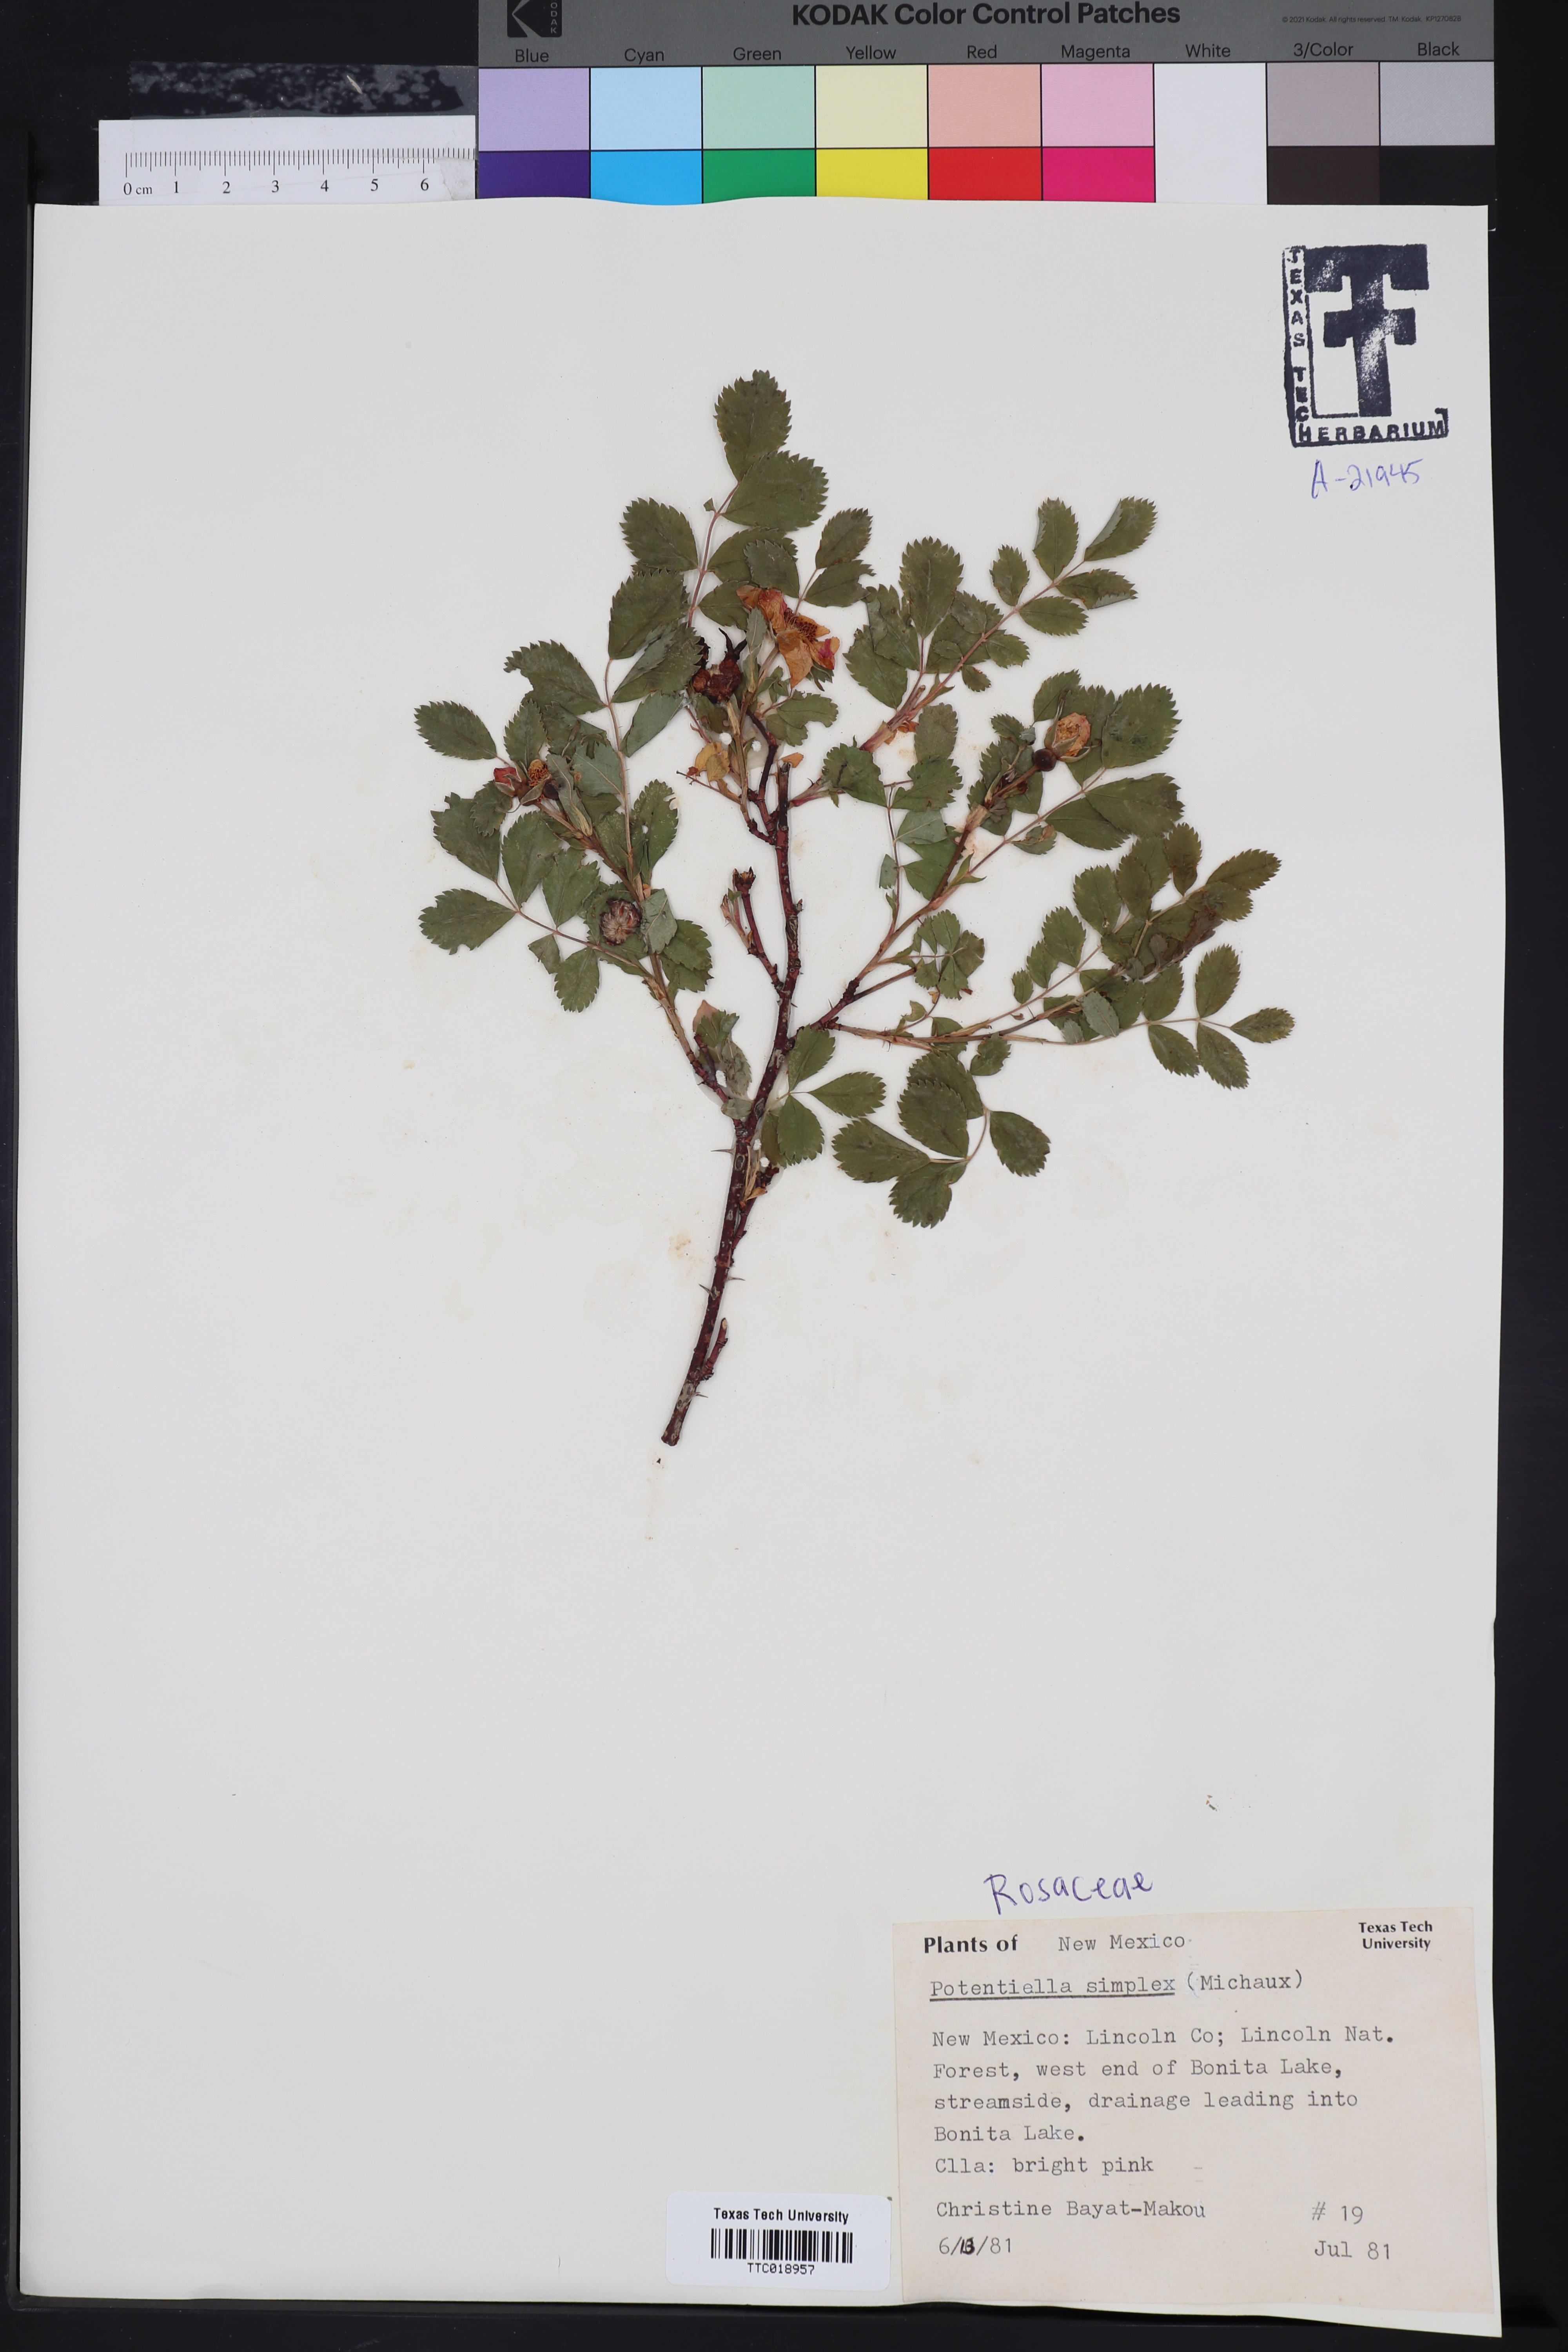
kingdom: Plantae
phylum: Tracheophyta
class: Magnoliopsida
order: Rosales
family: Rosaceae
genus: Potentilla
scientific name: Potentilla simplex
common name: Old field cinquefoil
